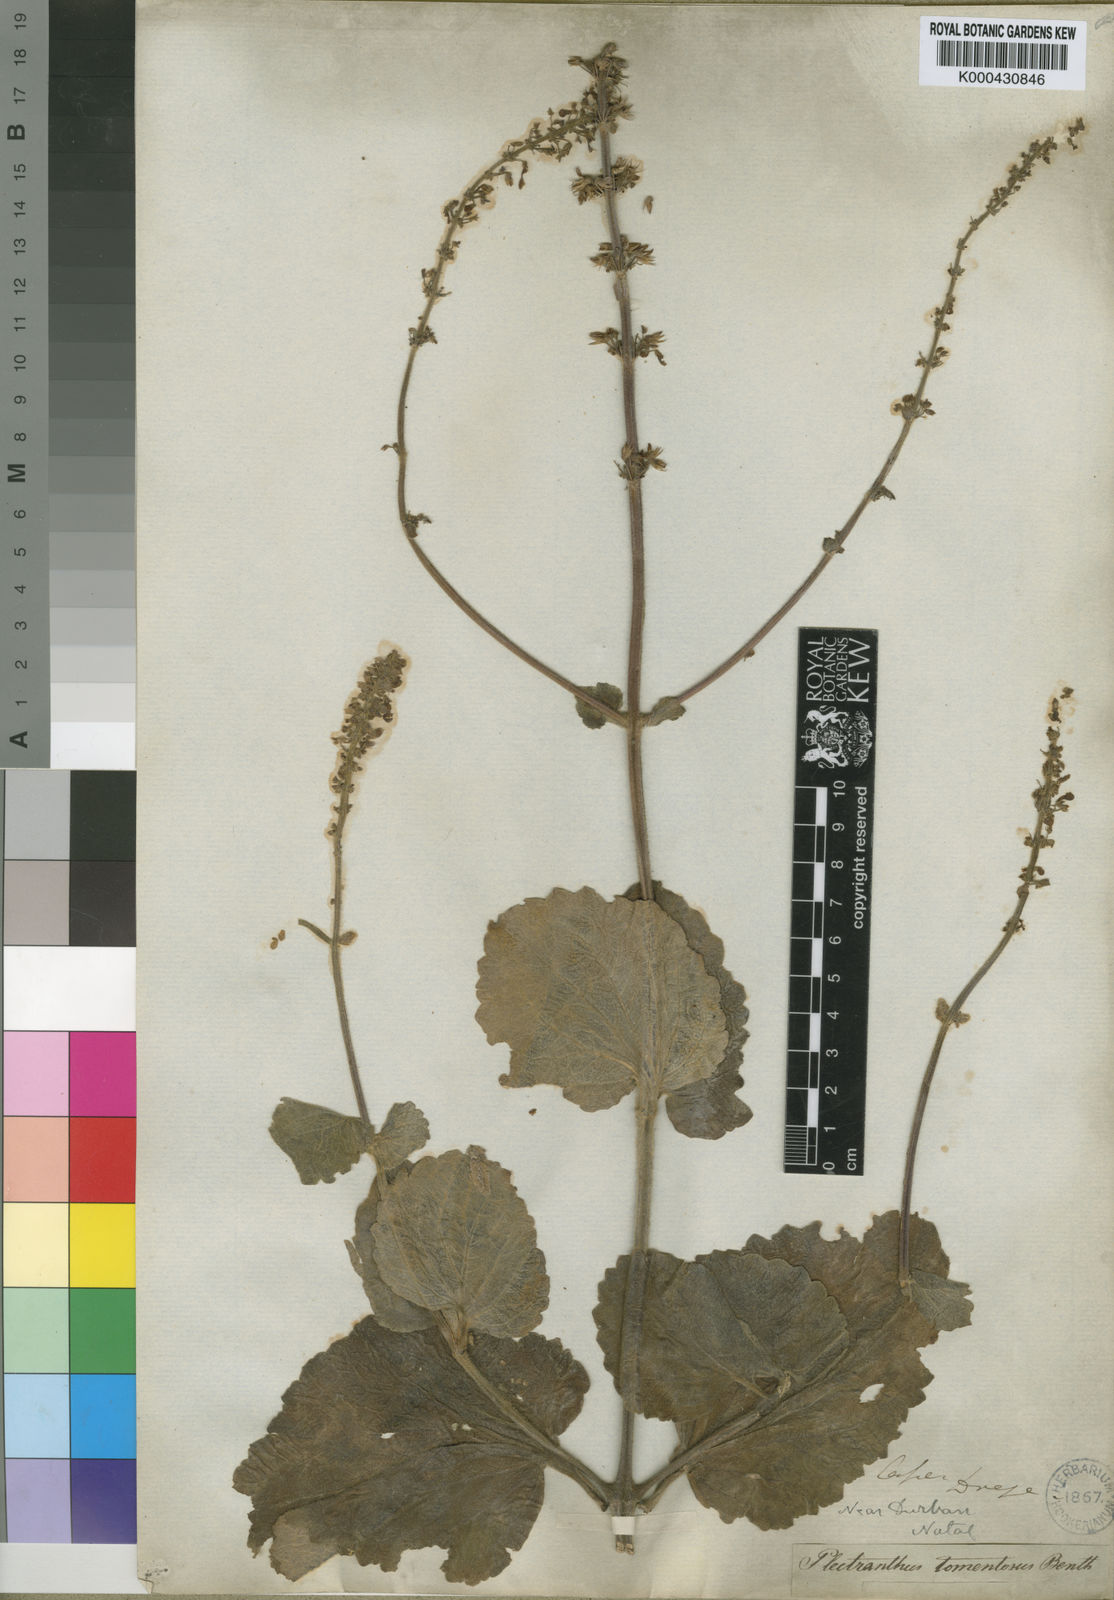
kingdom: Plantae
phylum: Tracheophyta
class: Magnoliopsida
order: Lamiales
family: Lamiaceae
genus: Coleus
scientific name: Coleus hadiensis
